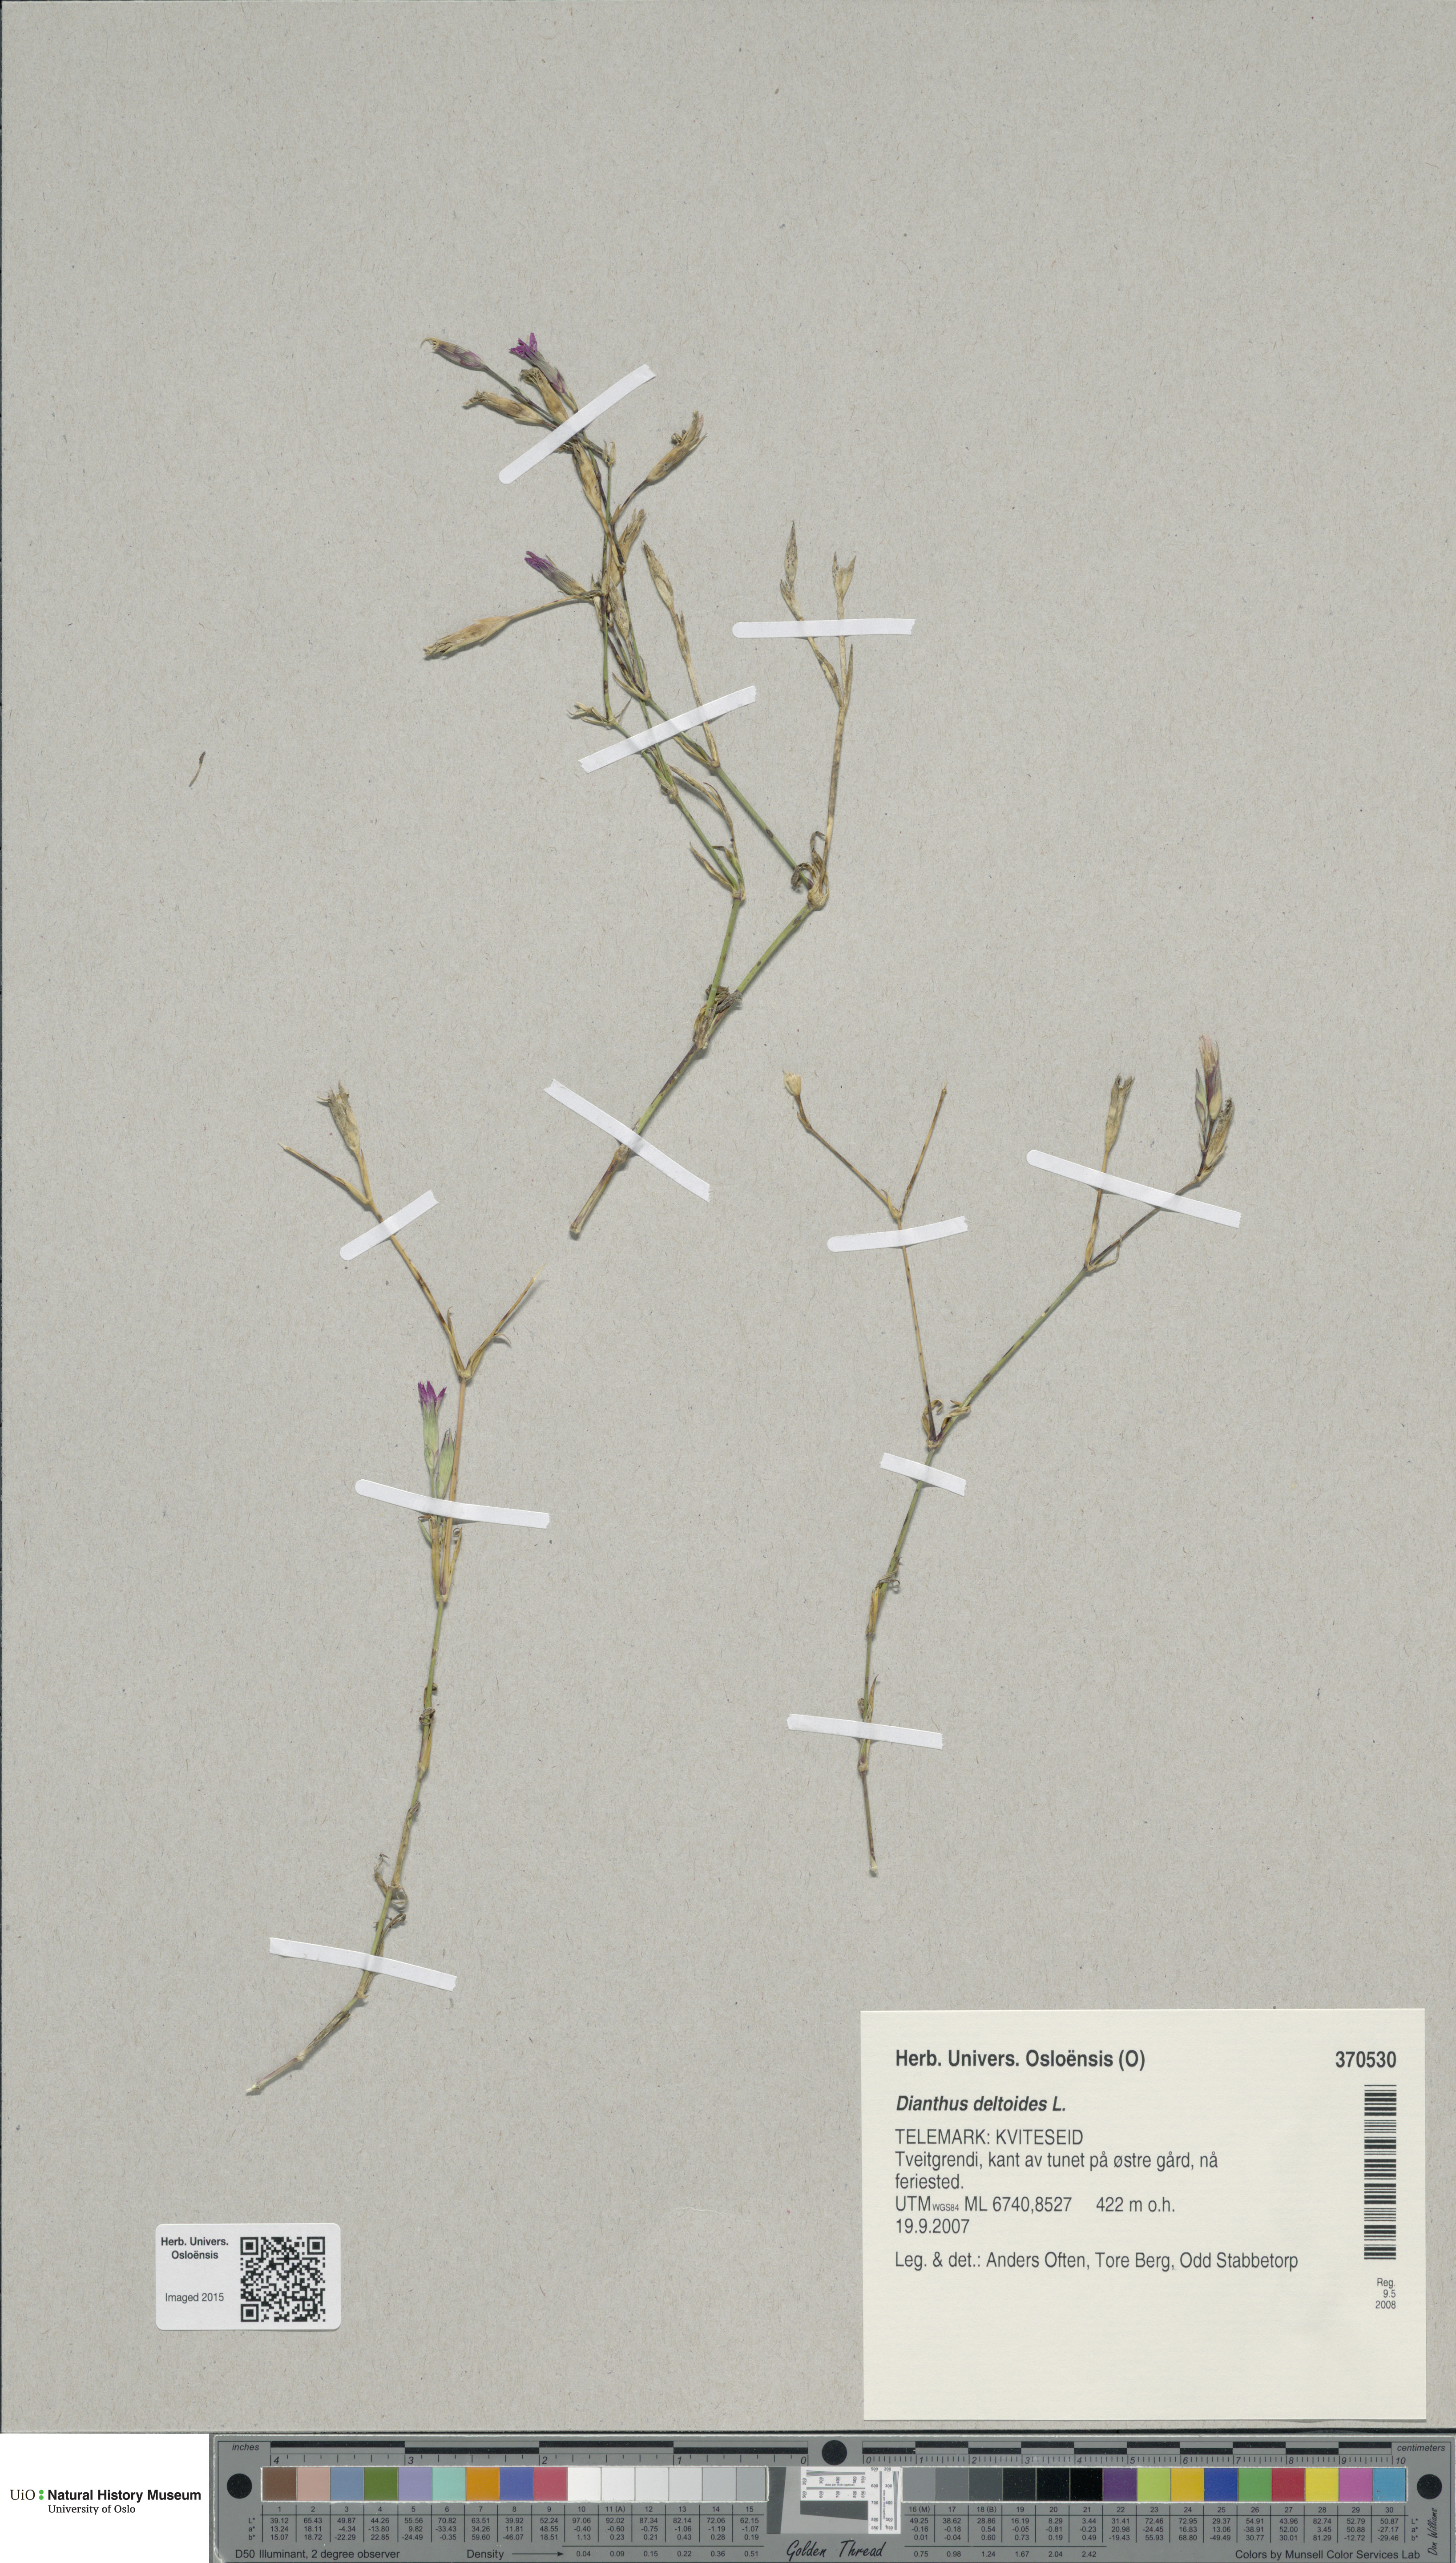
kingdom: Plantae
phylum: Tracheophyta
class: Magnoliopsida
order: Caryophyllales
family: Caryophyllaceae
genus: Dianthus
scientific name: Dianthus deltoides
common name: Maiden pink
